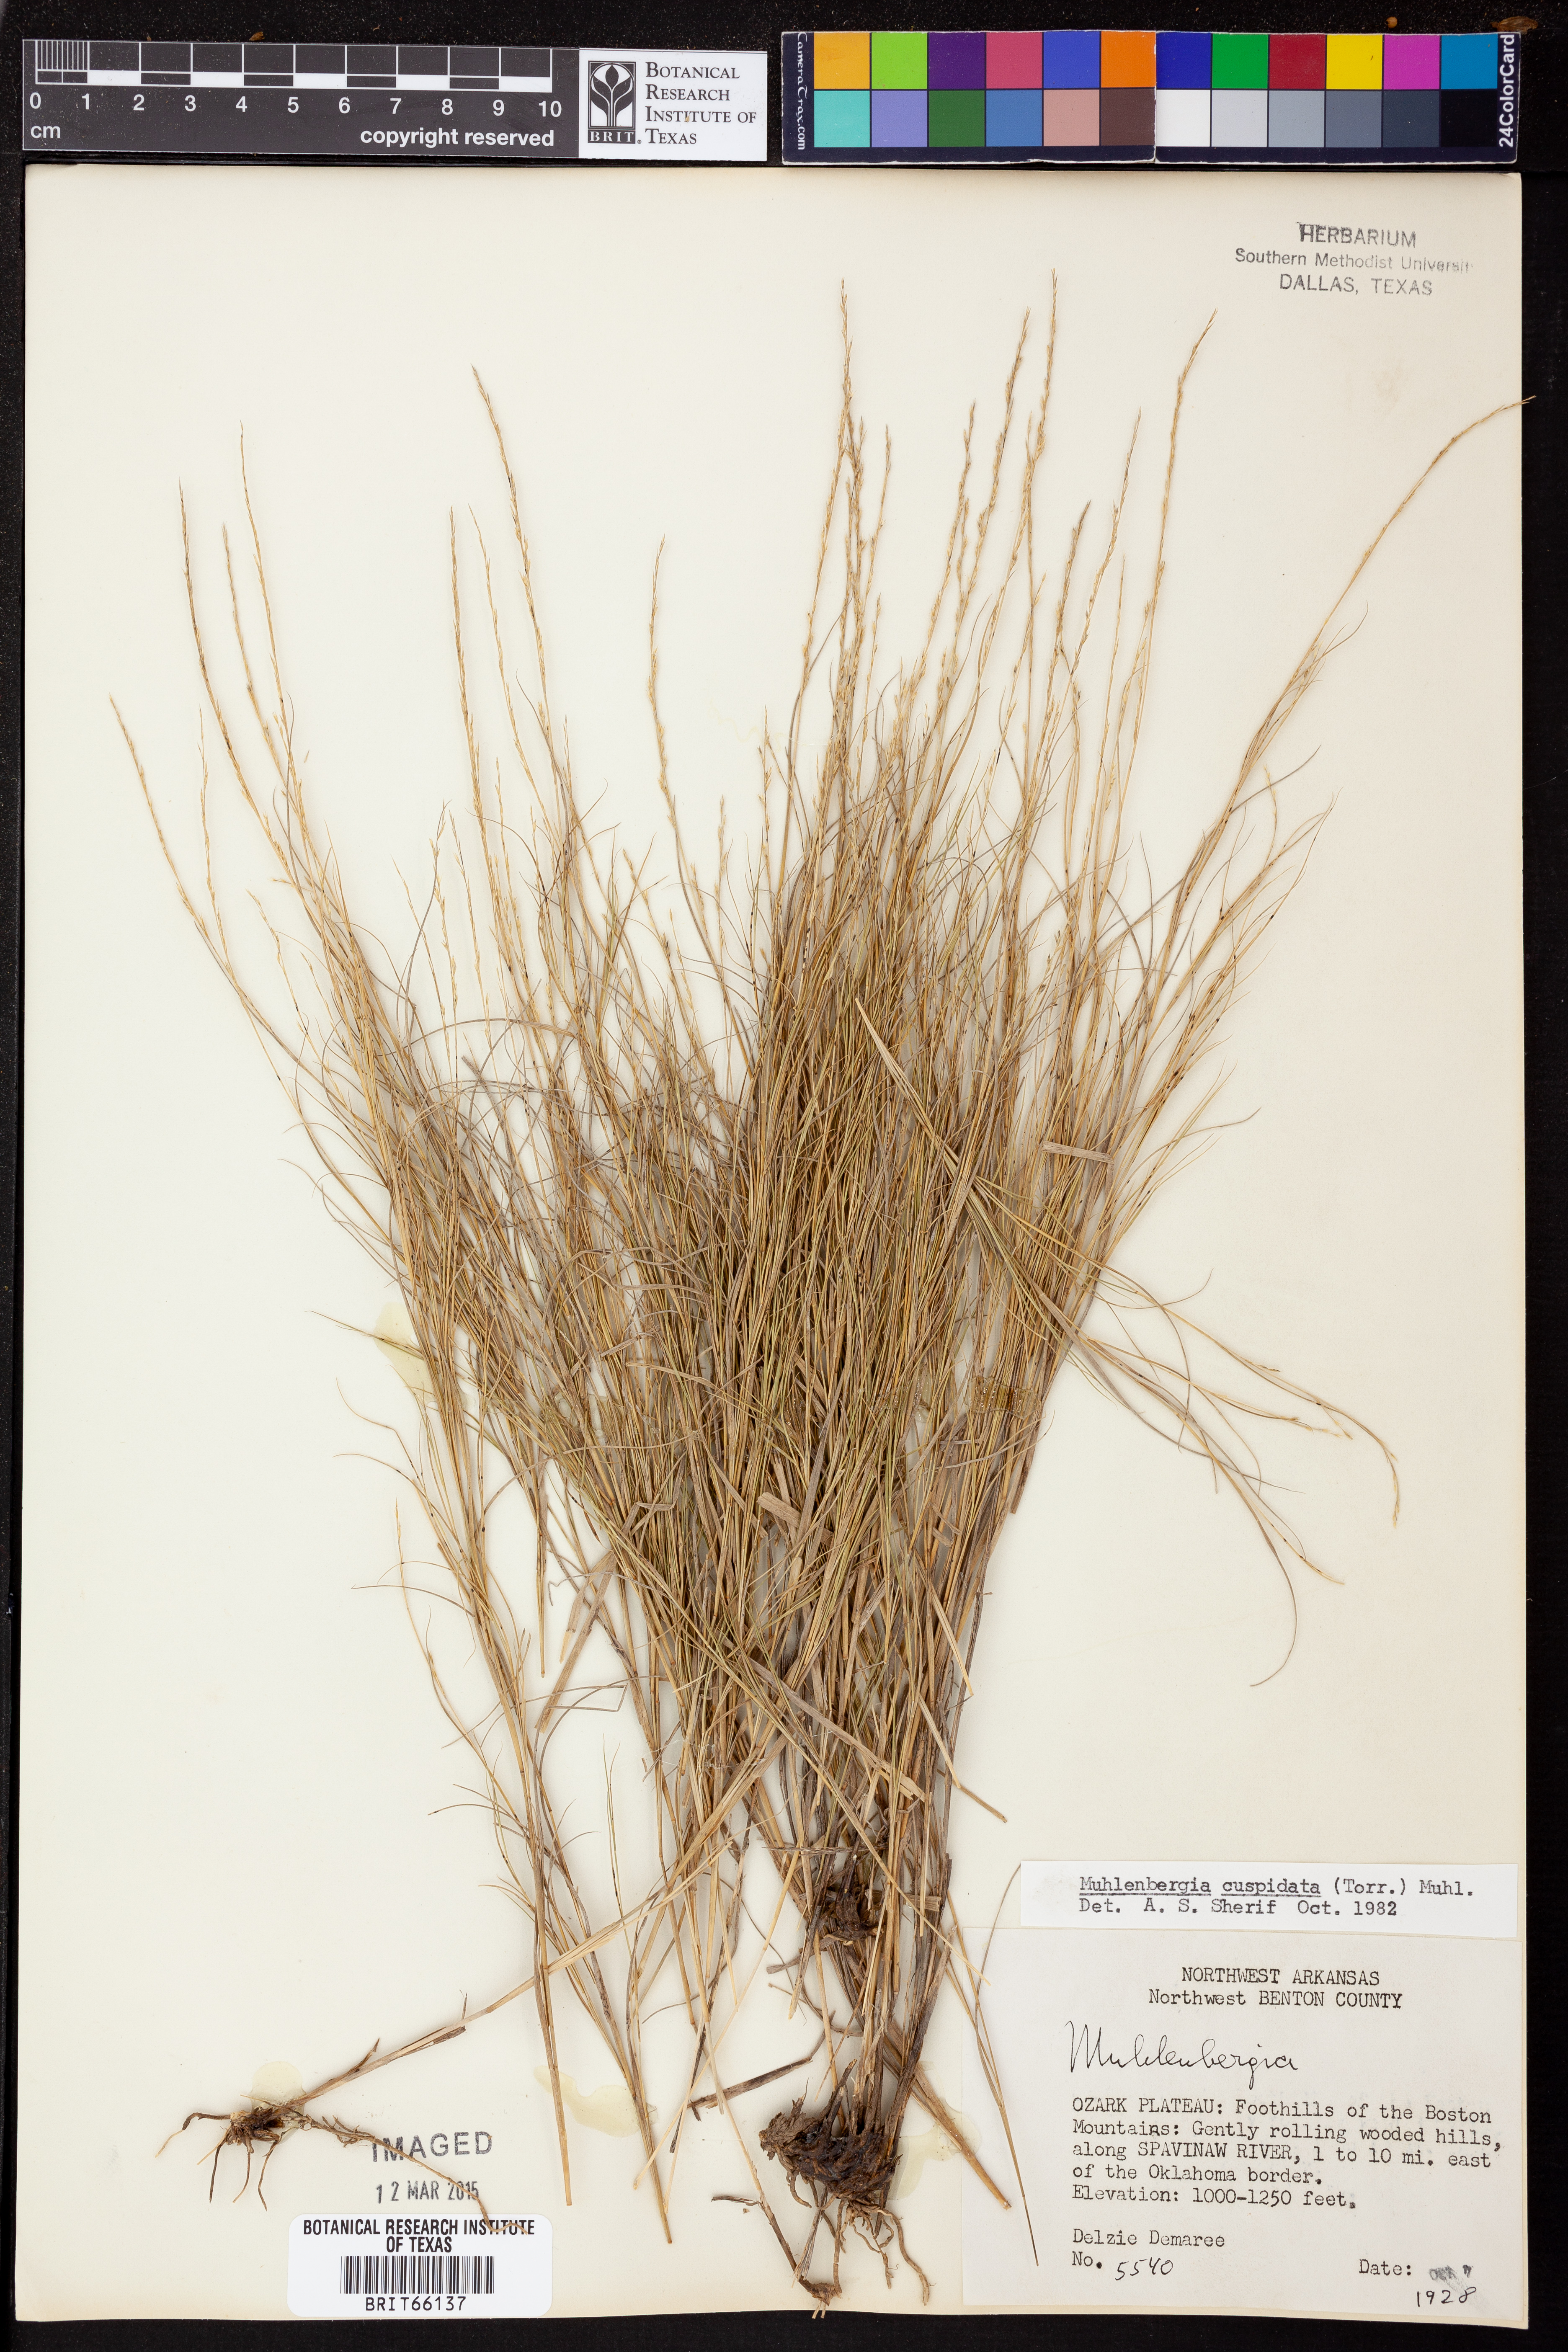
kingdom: Plantae
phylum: Tracheophyta
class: Liliopsida
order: Poales
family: Poaceae
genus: Muhlenbergia
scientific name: Muhlenbergia cuspidata
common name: Plains muhly
